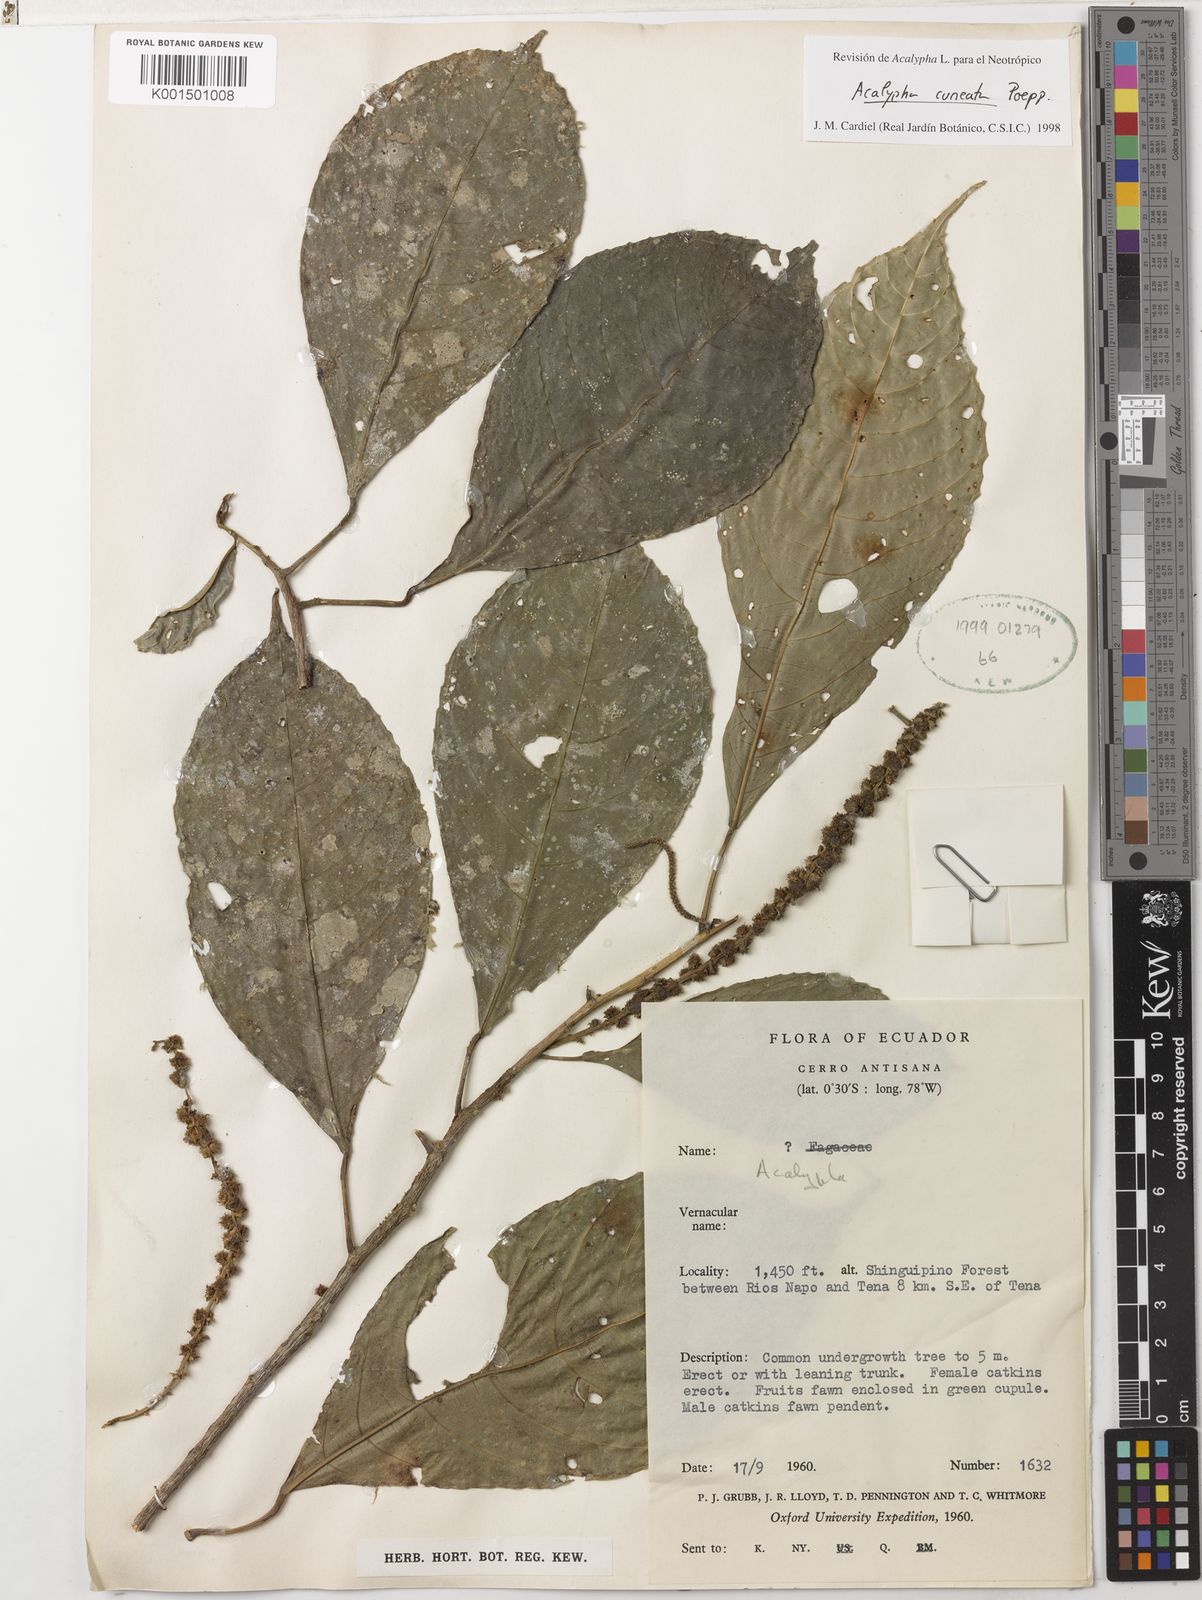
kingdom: Plantae
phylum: Tracheophyta
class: Magnoliopsida
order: Malpighiales
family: Euphorbiaceae
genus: Acalypha
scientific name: Acalypha cuneata
